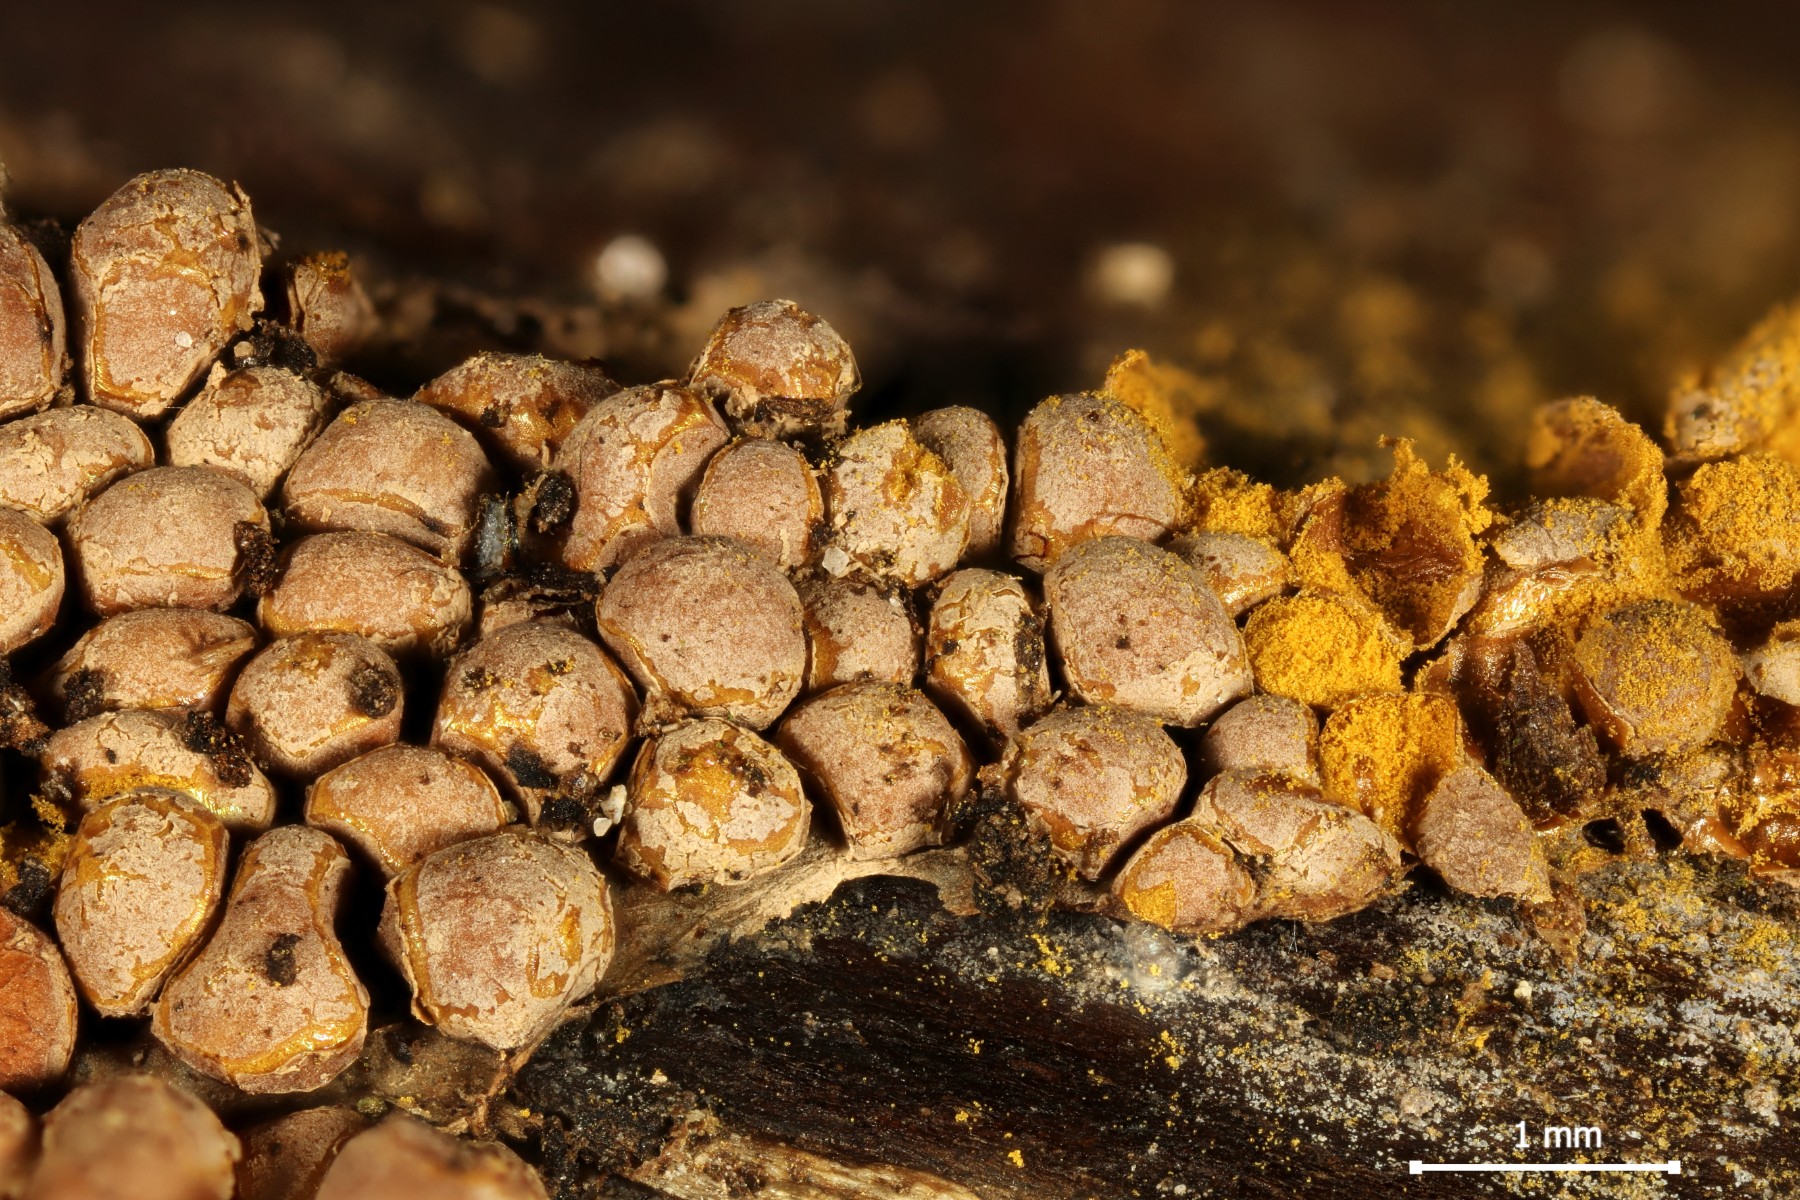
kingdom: Protozoa
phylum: Mycetozoa
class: Myxomycetes
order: Trichiales
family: Trichiaceae
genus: Perichaena
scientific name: Perichaena corticalis
